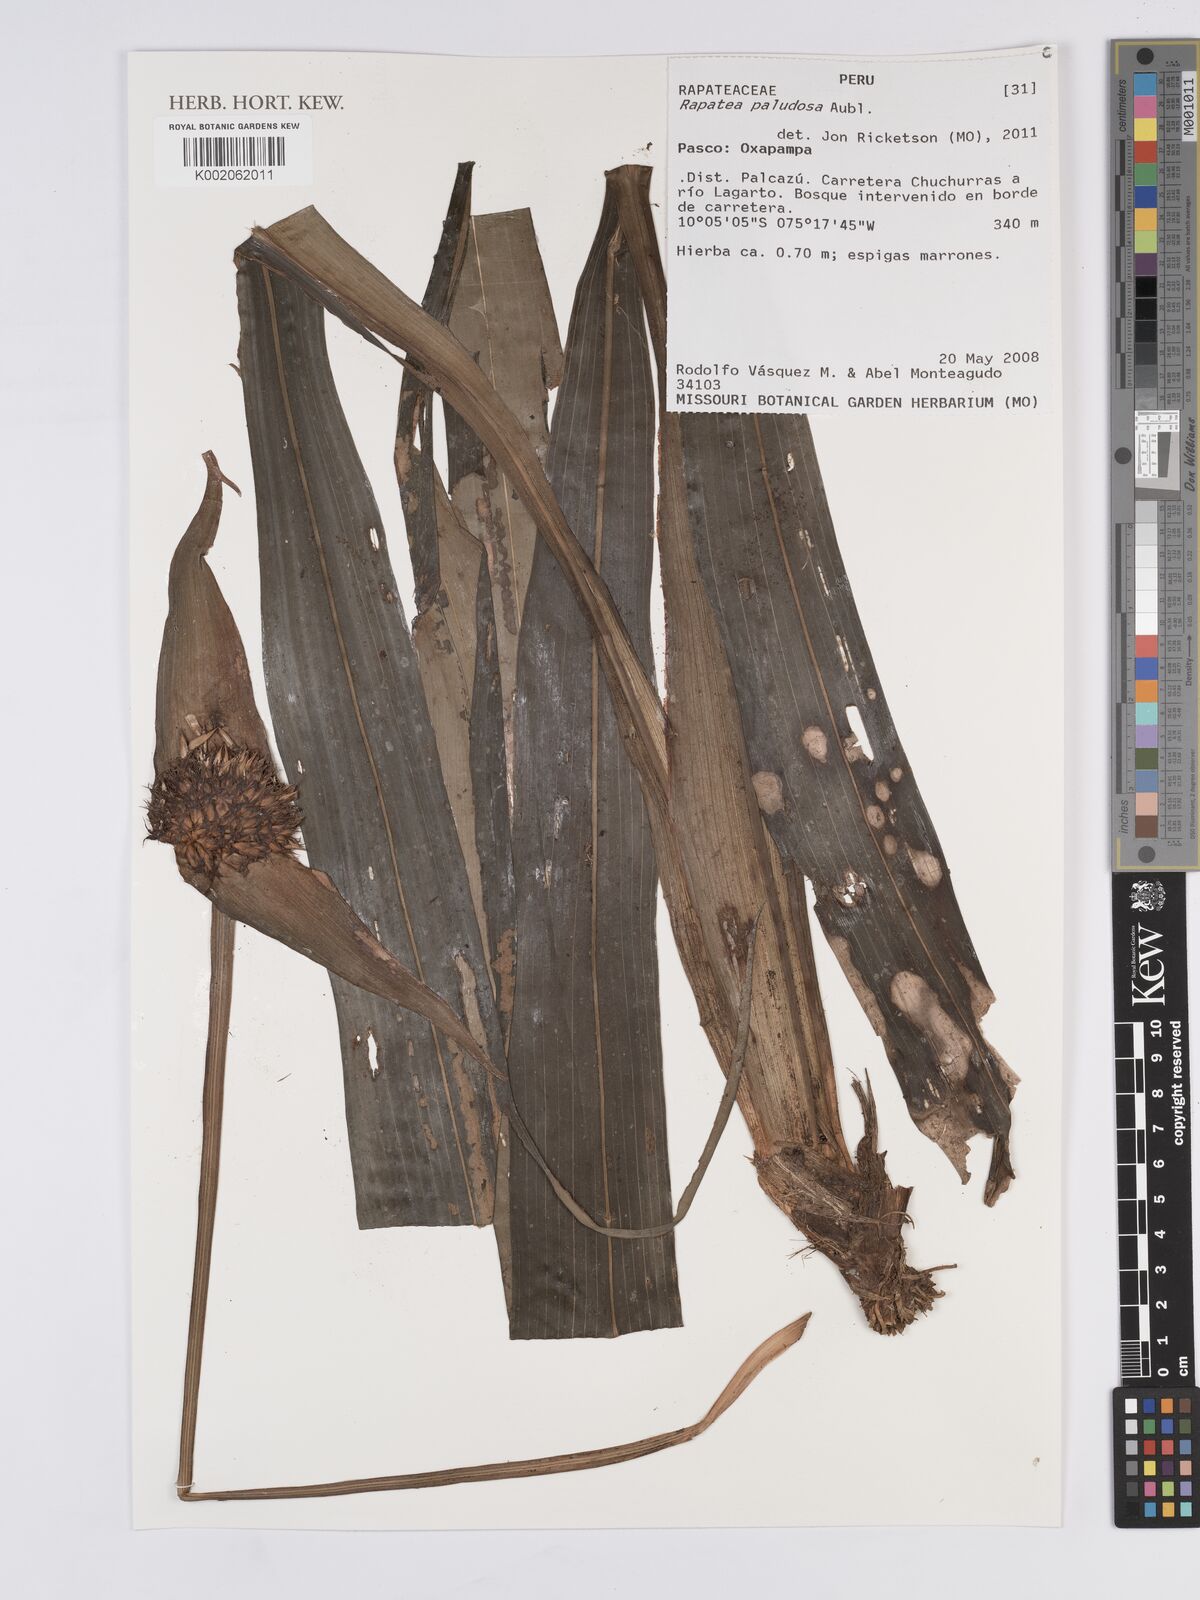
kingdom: Plantae
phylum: Tracheophyta
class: Liliopsida
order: Poales
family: Rapateaceae
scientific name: Rapateaceae
